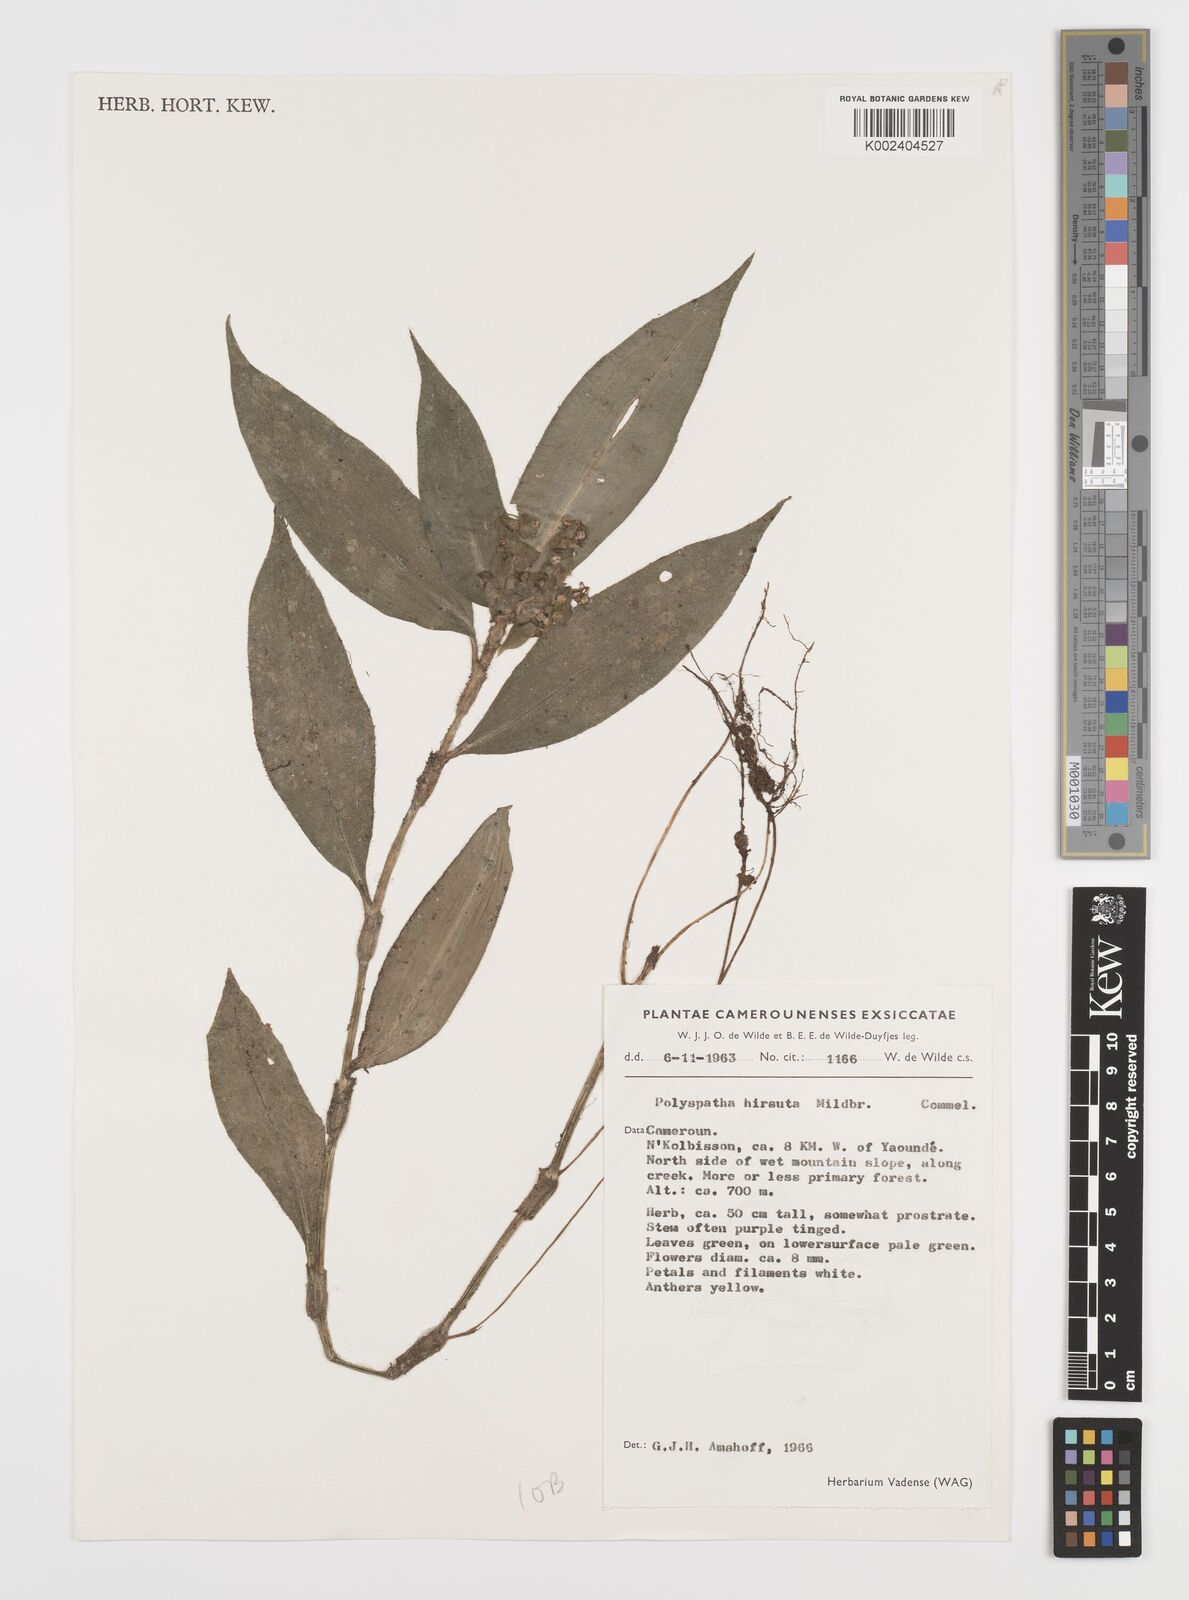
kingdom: Plantae
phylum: Tracheophyta
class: Liliopsida
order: Commelinales
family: Commelinaceae
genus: Polyspatha
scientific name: Polyspatha hirsuta
